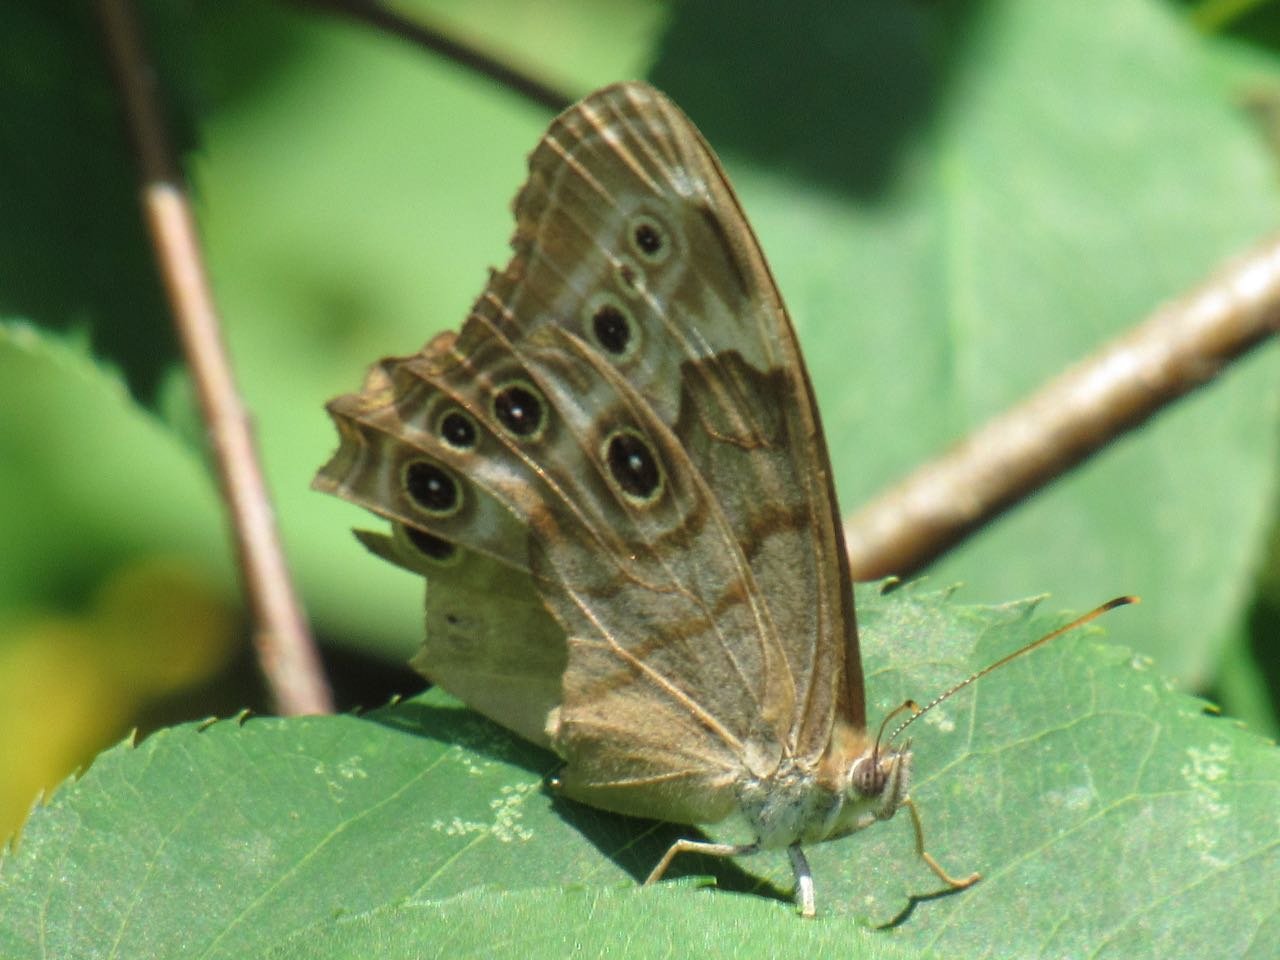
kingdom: Animalia
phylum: Arthropoda
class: Insecta
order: Lepidoptera
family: Nymphalidae
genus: Lethe
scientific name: Lethe anthedon
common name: Northern Pearly-Eye
